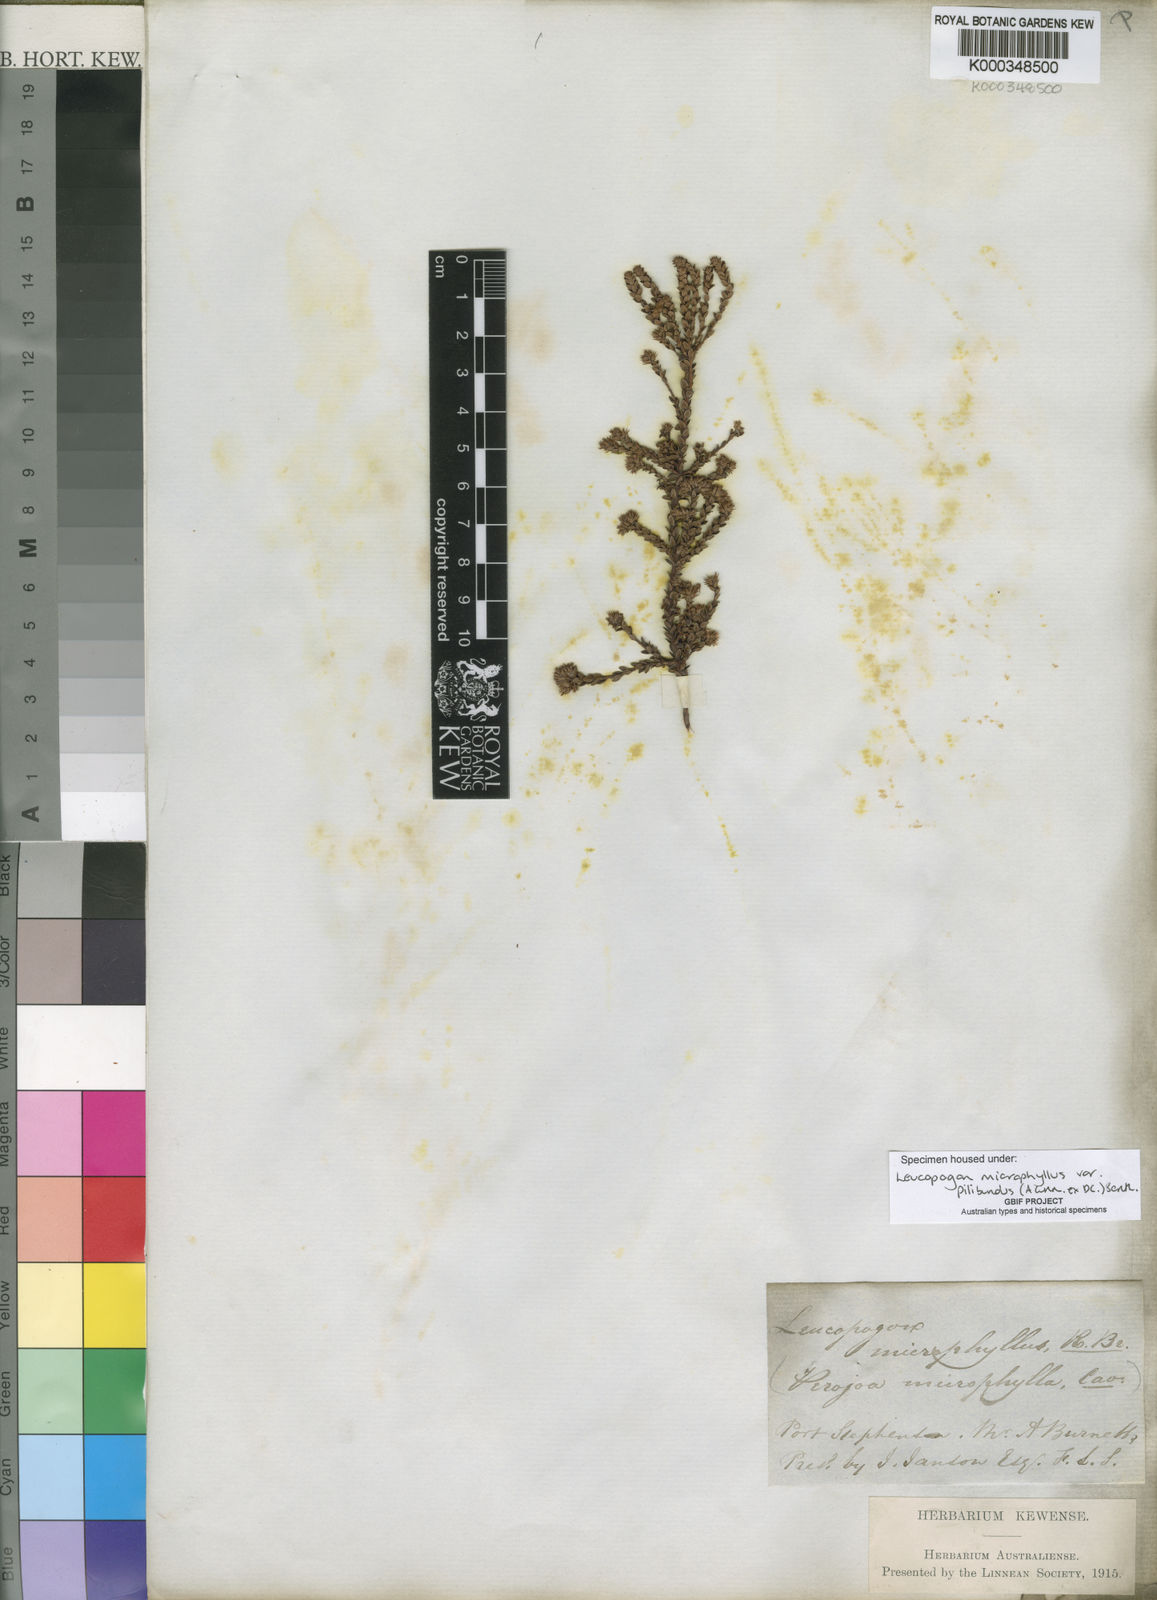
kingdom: Plantae
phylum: Tracheophyta
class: Magnoliopsida
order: Ericales
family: Ericaceae
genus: Leucopogon
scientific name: Leucopogon microphyllus
